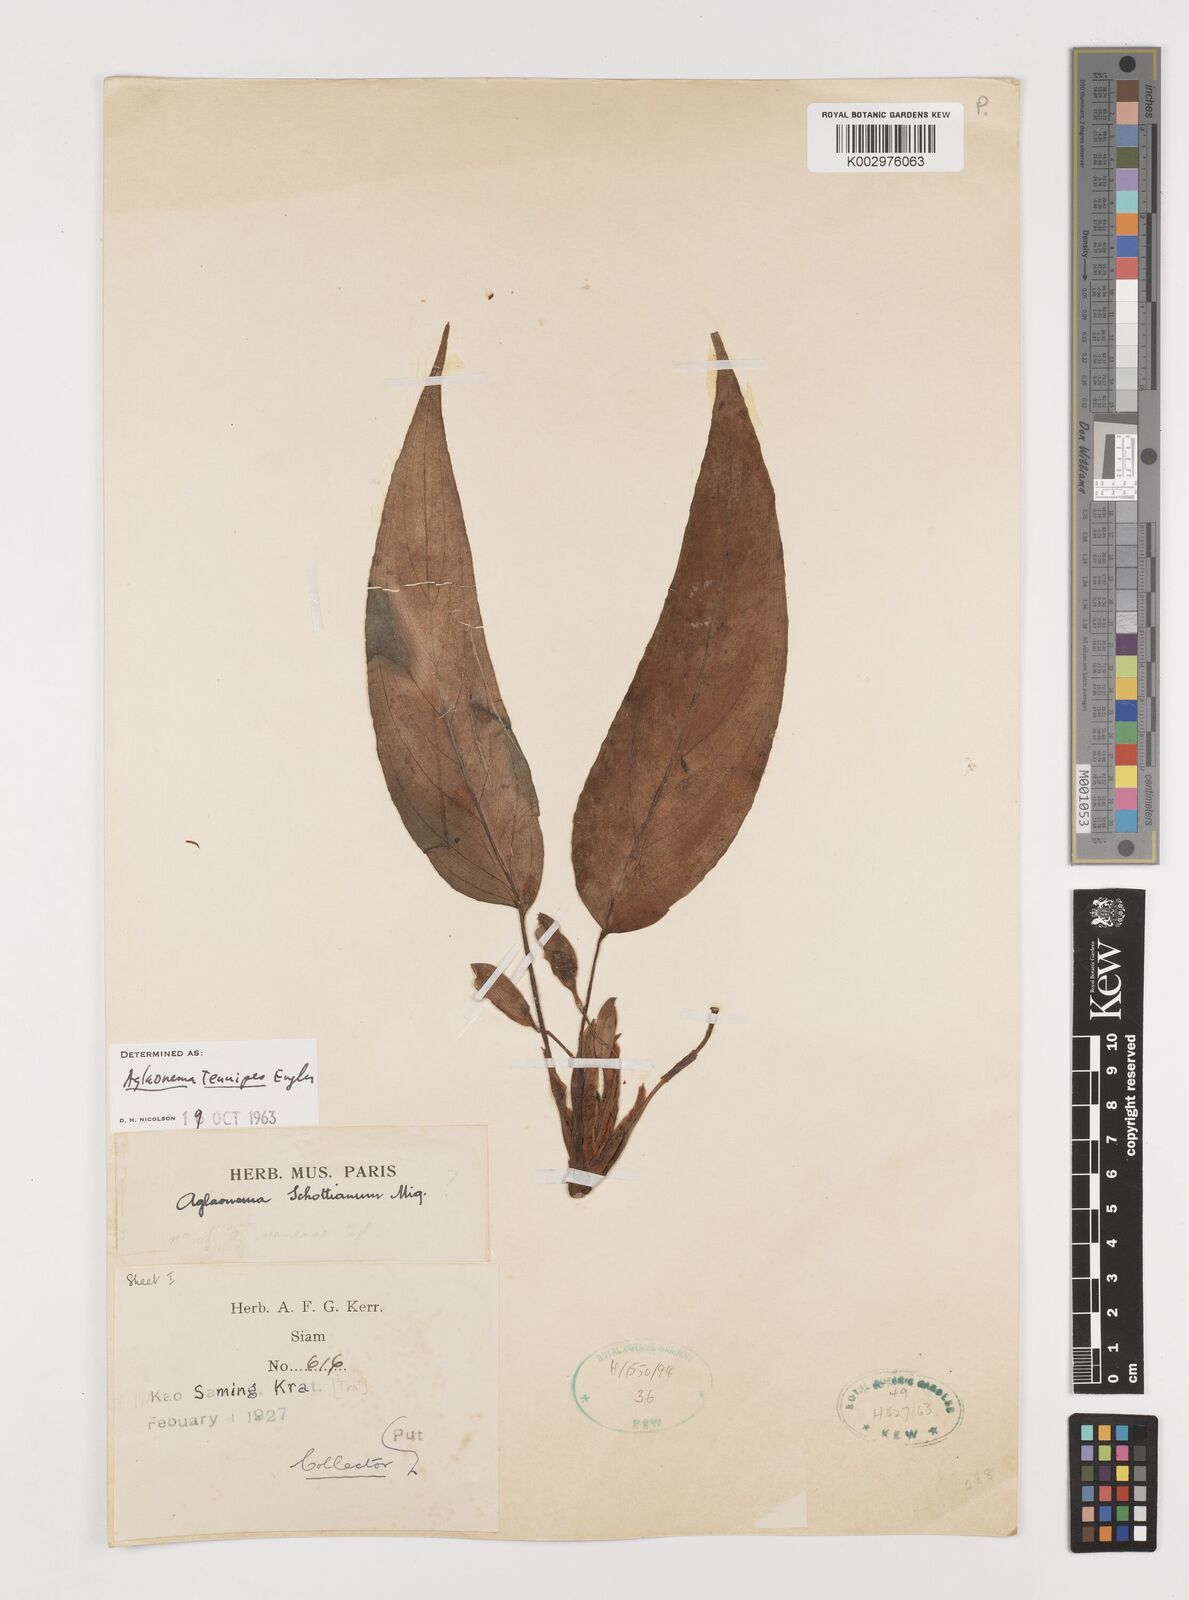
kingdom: Plantae
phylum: Tracheophyta
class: Liliopsida
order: Alismatales
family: Araceae
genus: Aglaonema
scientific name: Aglaonema simplex
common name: Malayan-sword
